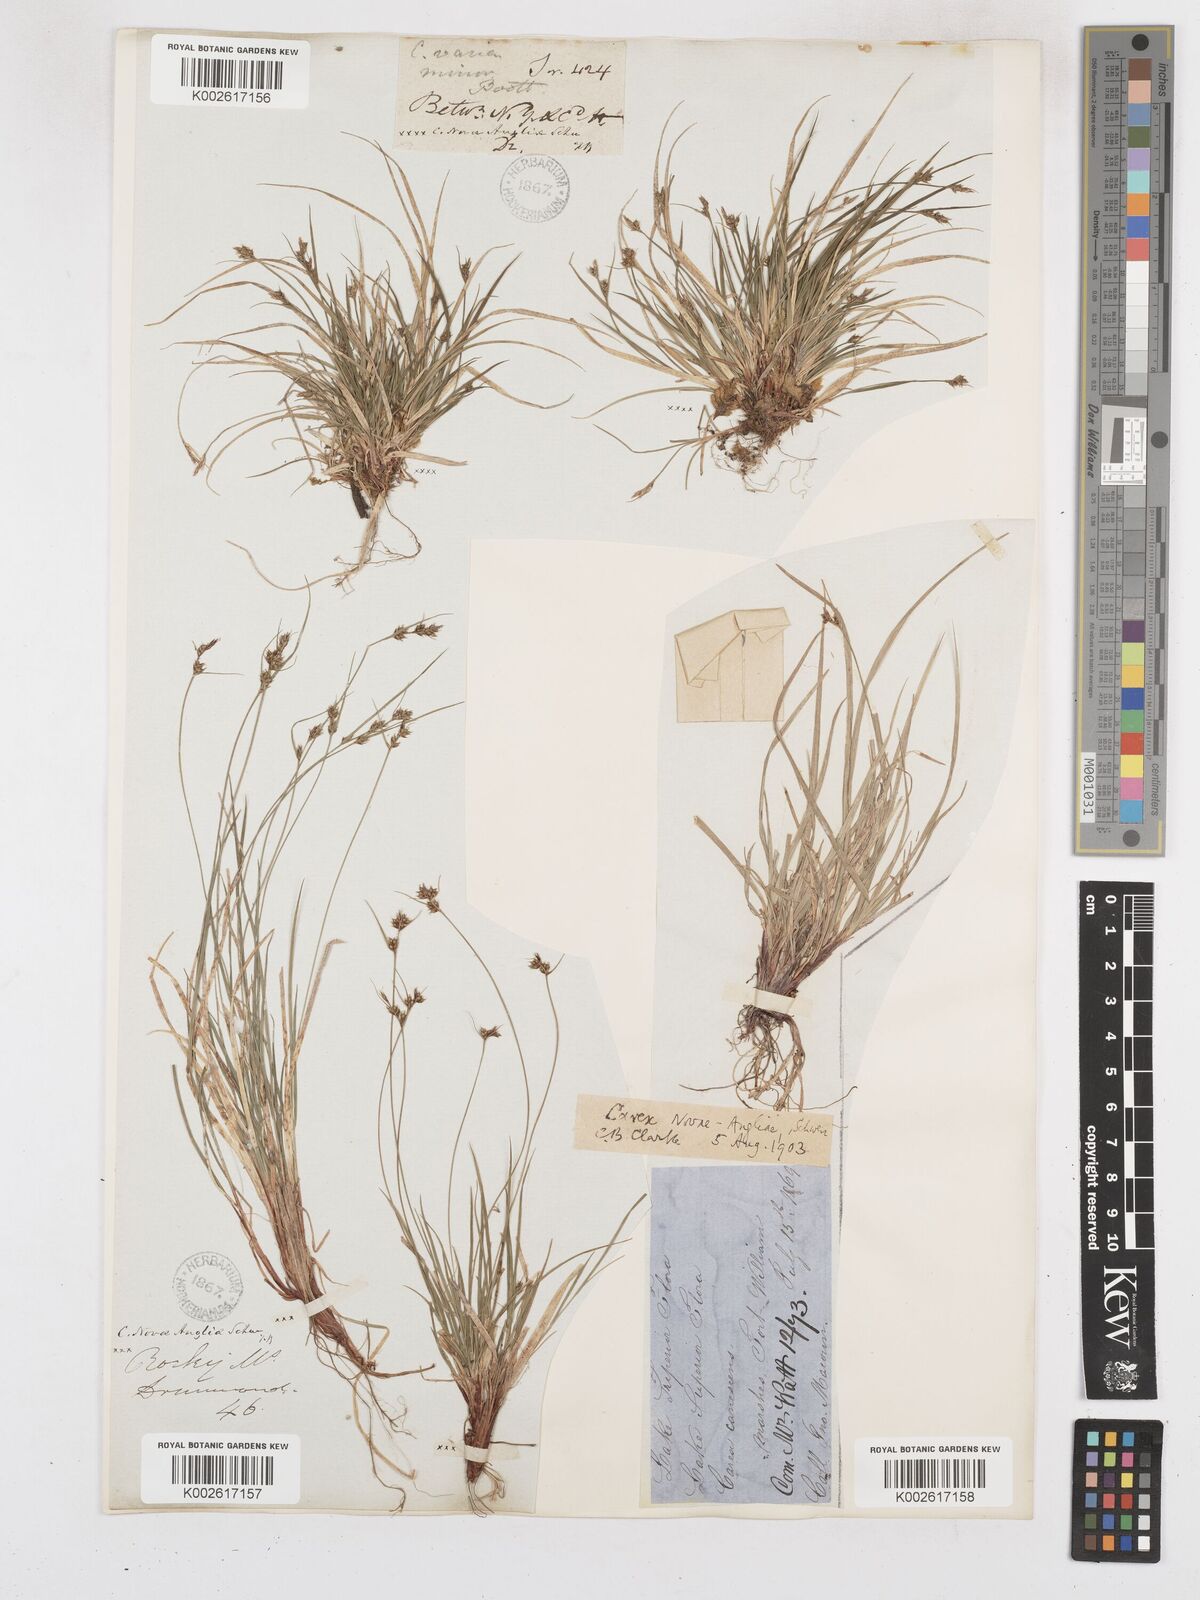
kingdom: Plantae
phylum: Tracheophyta
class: Liliopsida
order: Poales
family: Cyperaceae
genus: Carex
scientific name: Carex novae-angliae
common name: New england sedge
